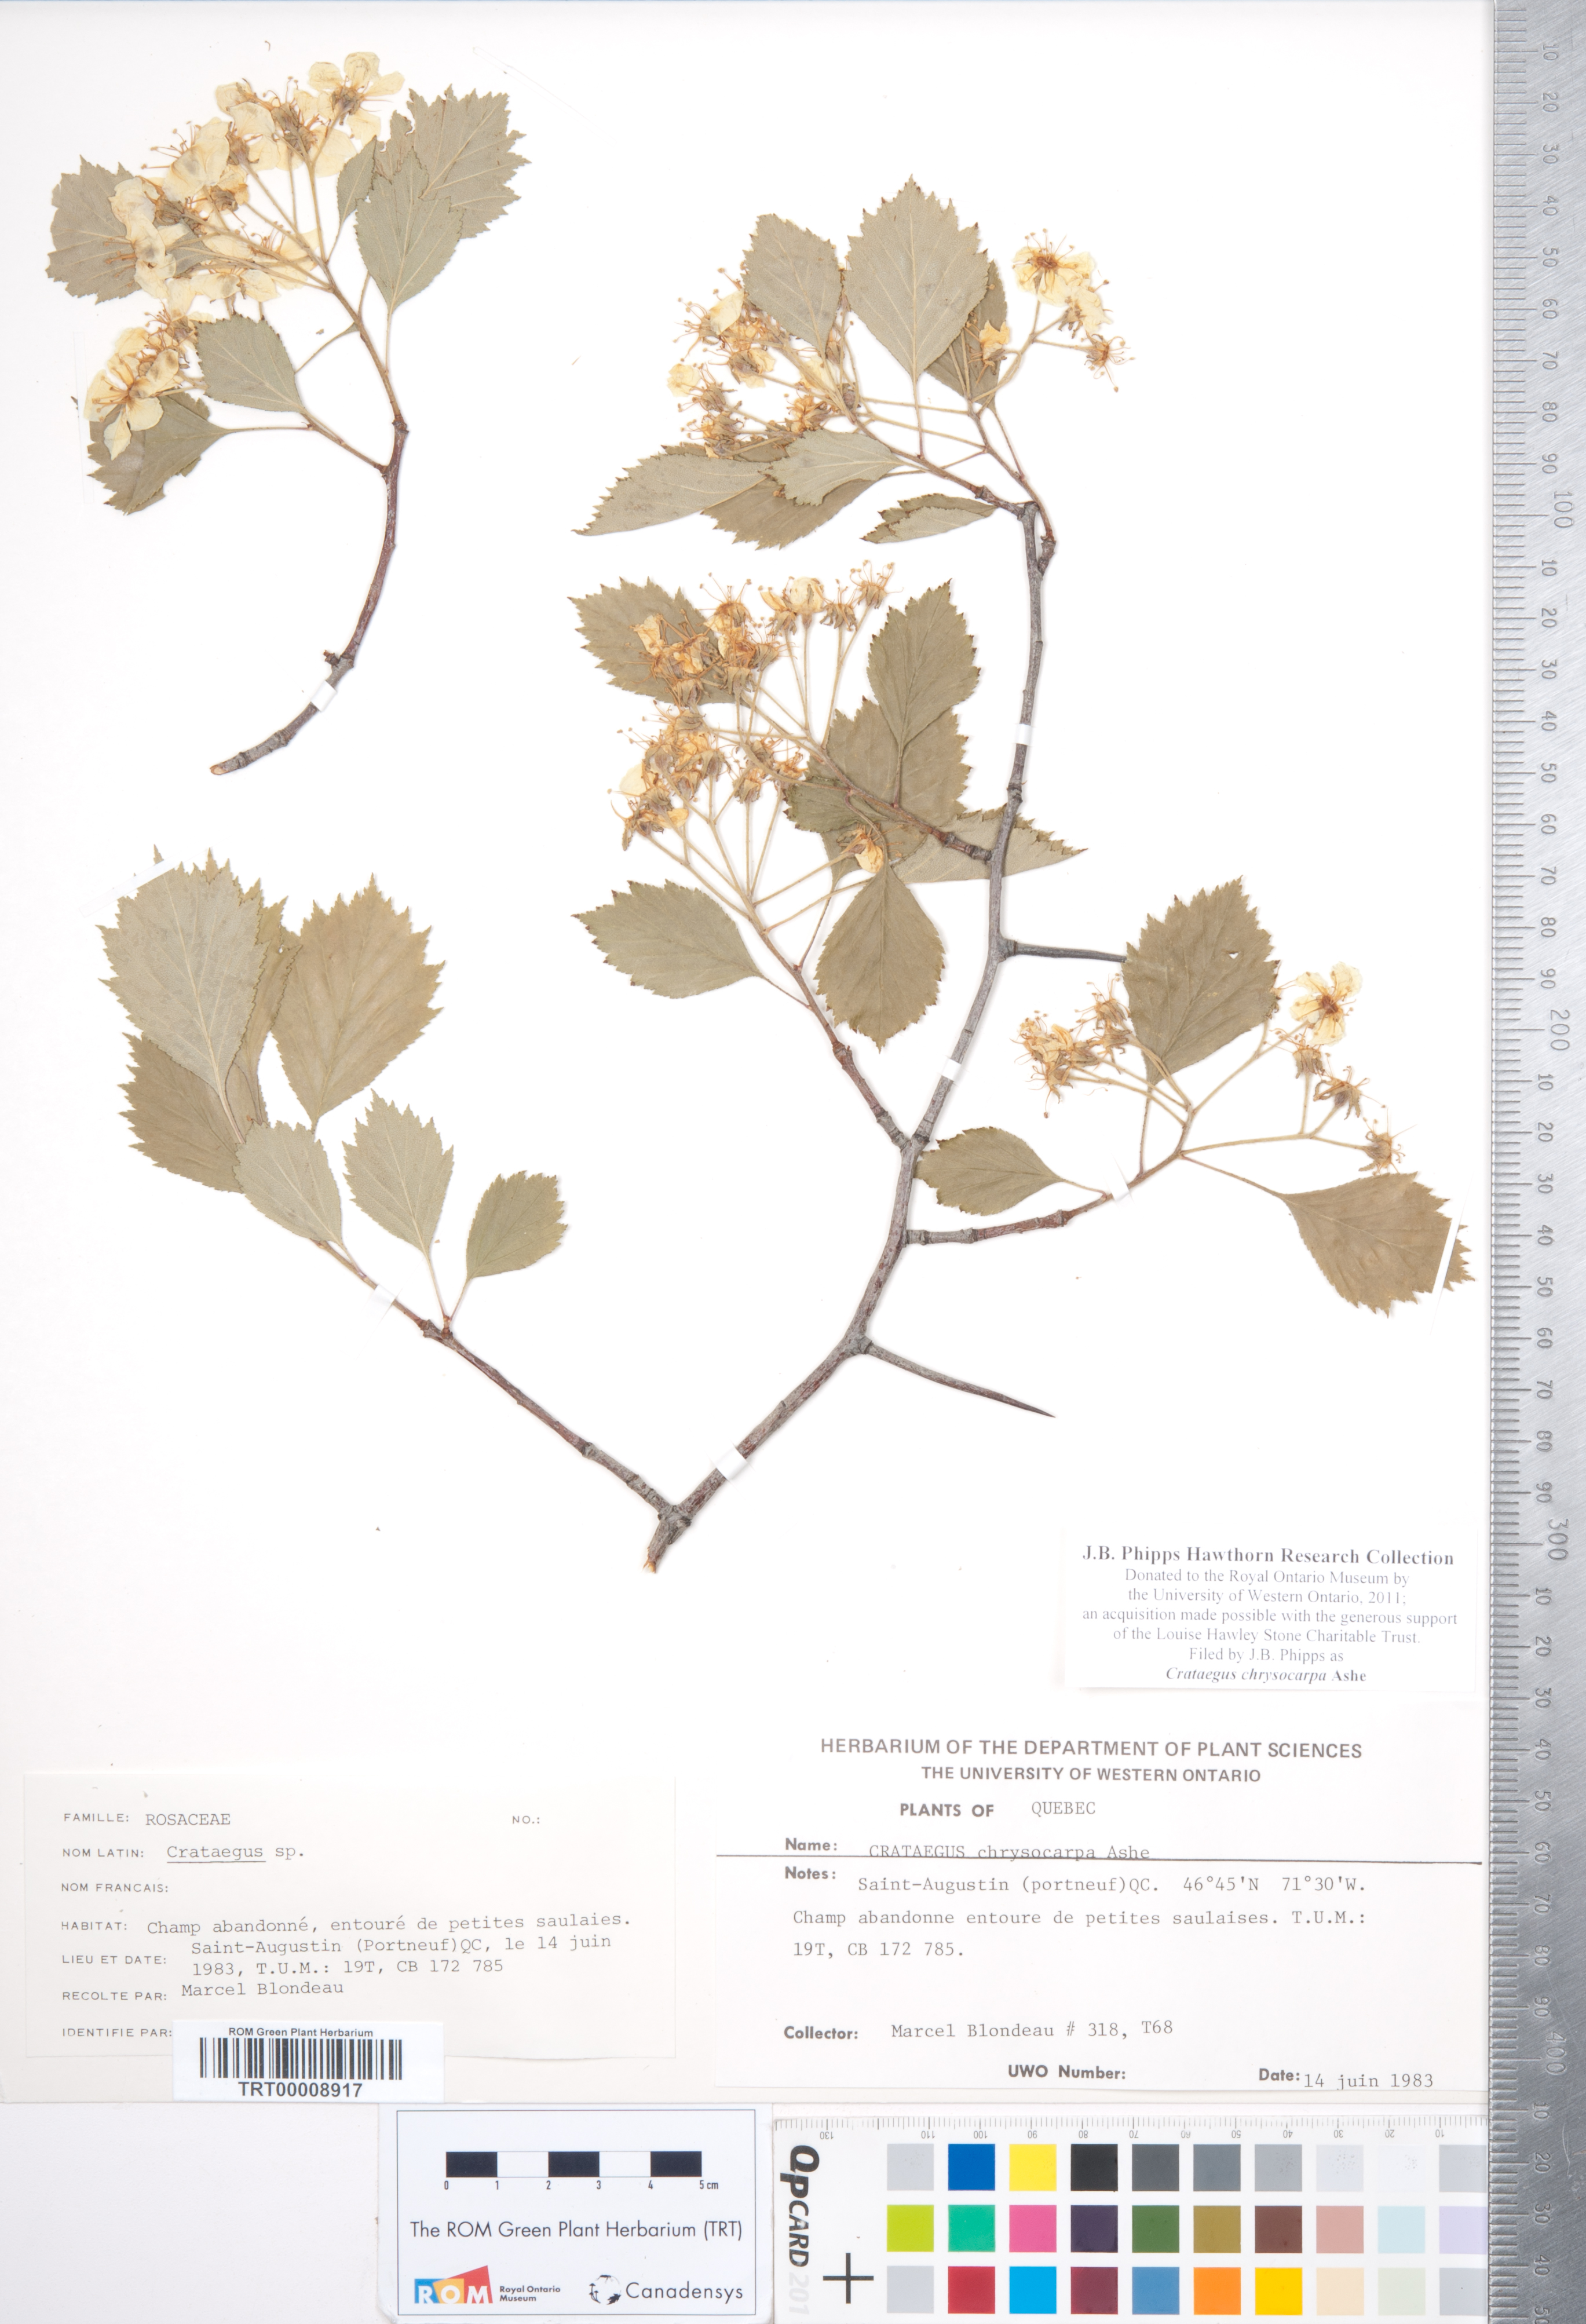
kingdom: Plantae
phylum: Tracheophyta
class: Magnoliopsida
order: Rosales
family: Rosaceae
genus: Crataegus
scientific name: Crataegus chrysocarpa
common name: Fire-berry hawthorn
